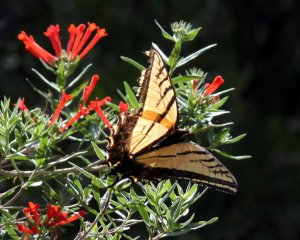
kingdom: Animalia
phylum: Arthropoda
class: Insecta
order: Lepidoptera
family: Papilionidae
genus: Papilio
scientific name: Papilio multicaudata
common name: Two-tailed Swallowtail
